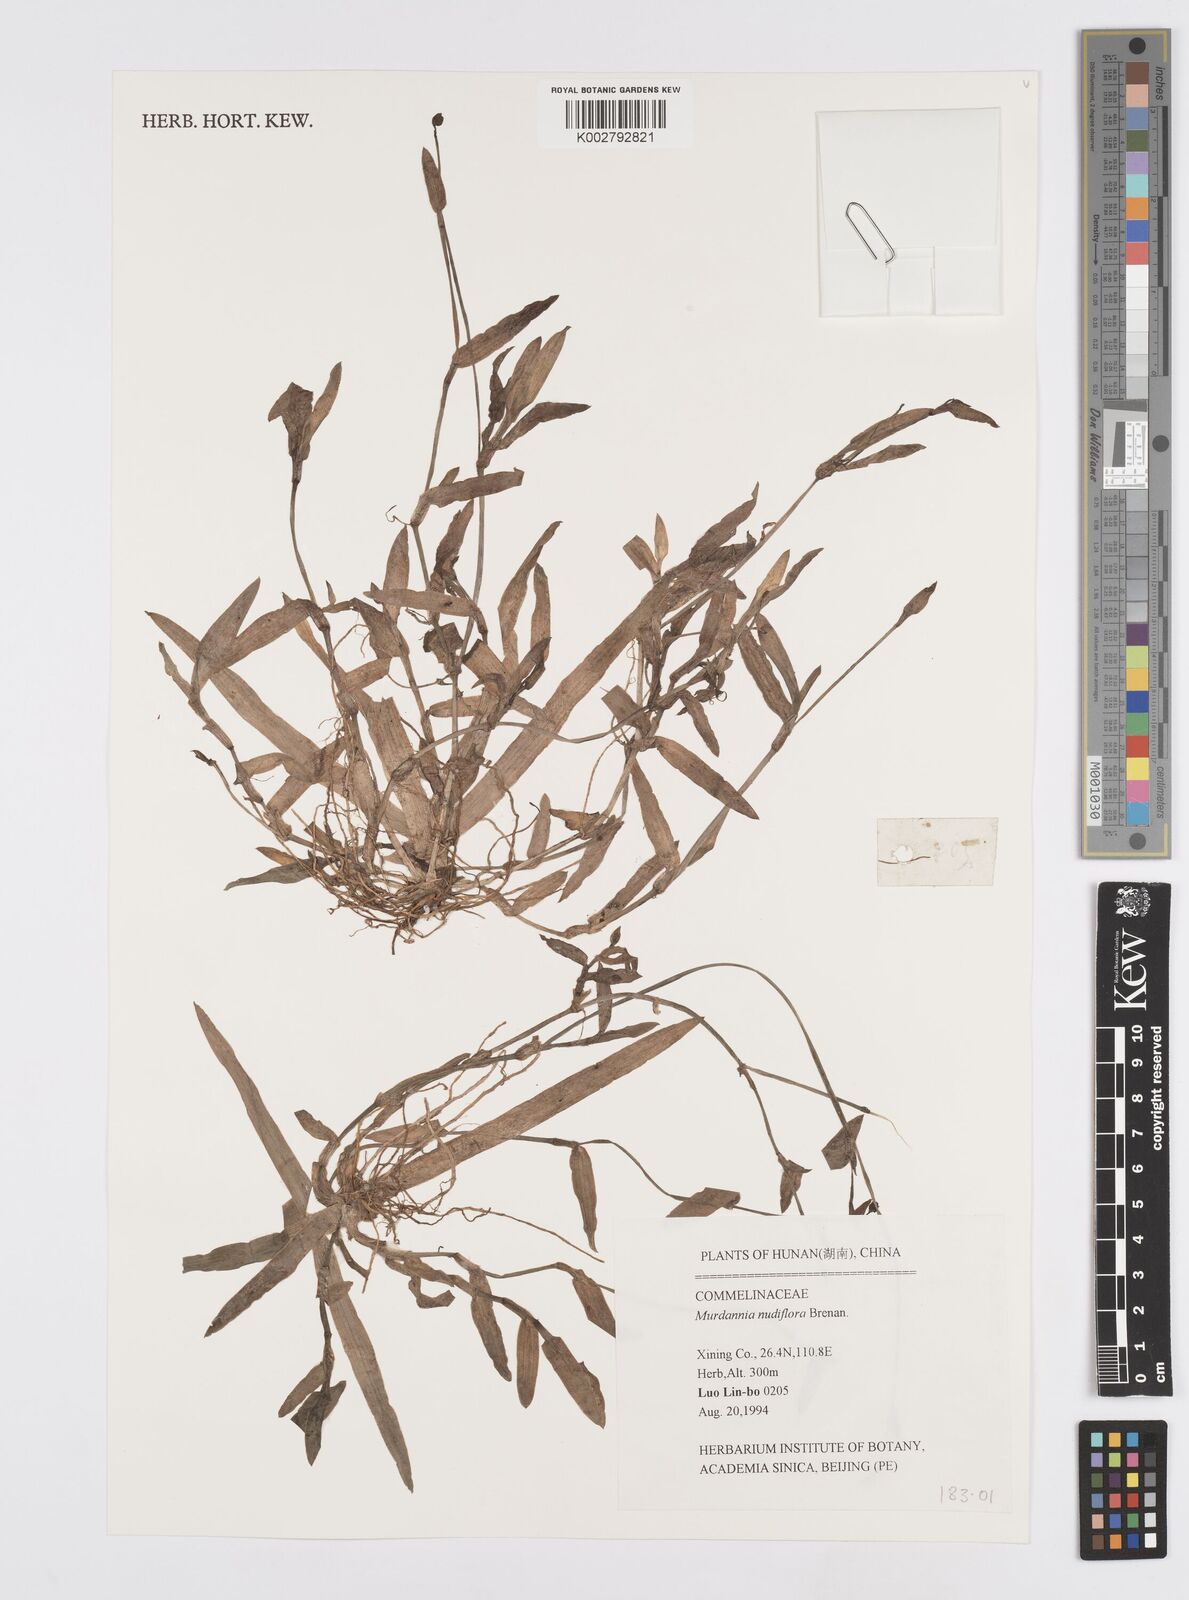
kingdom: Plantae
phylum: Tracheophyta
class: Liliopsida
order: Commelinales
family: Commelinaceae
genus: Murdannia
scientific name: Murdannia nudiflora
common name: Nakedstem dewflower
